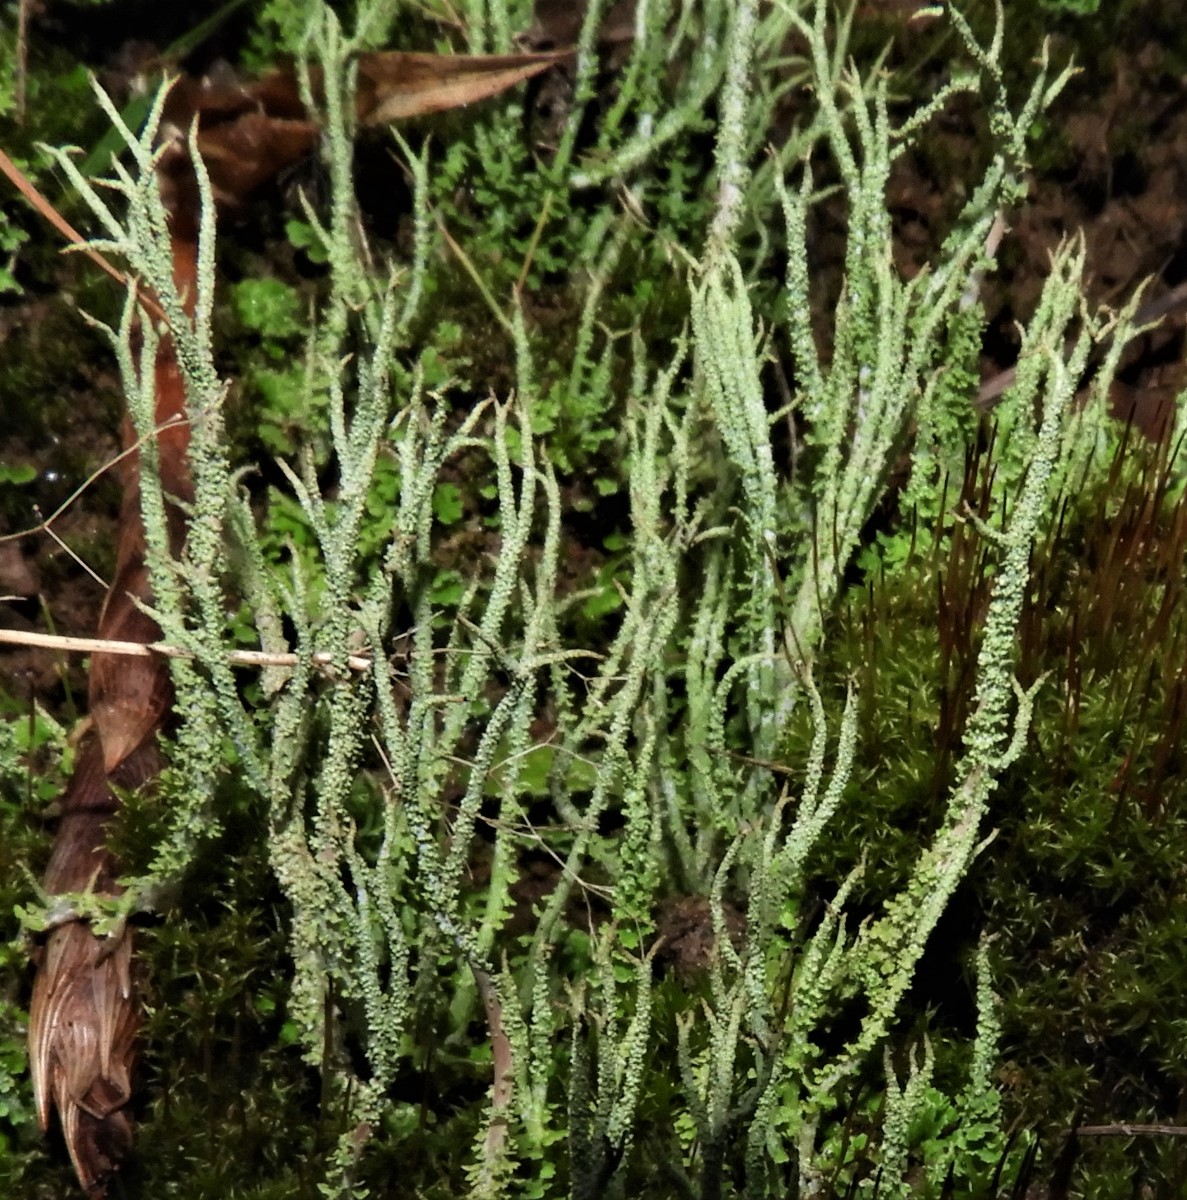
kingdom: Fungi
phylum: Ascomycota
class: Lecanoromycetes
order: Lecanorales
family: Cladoniaceae
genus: Cladonia
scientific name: Cladonia scabriuscula
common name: ru bægerlav
